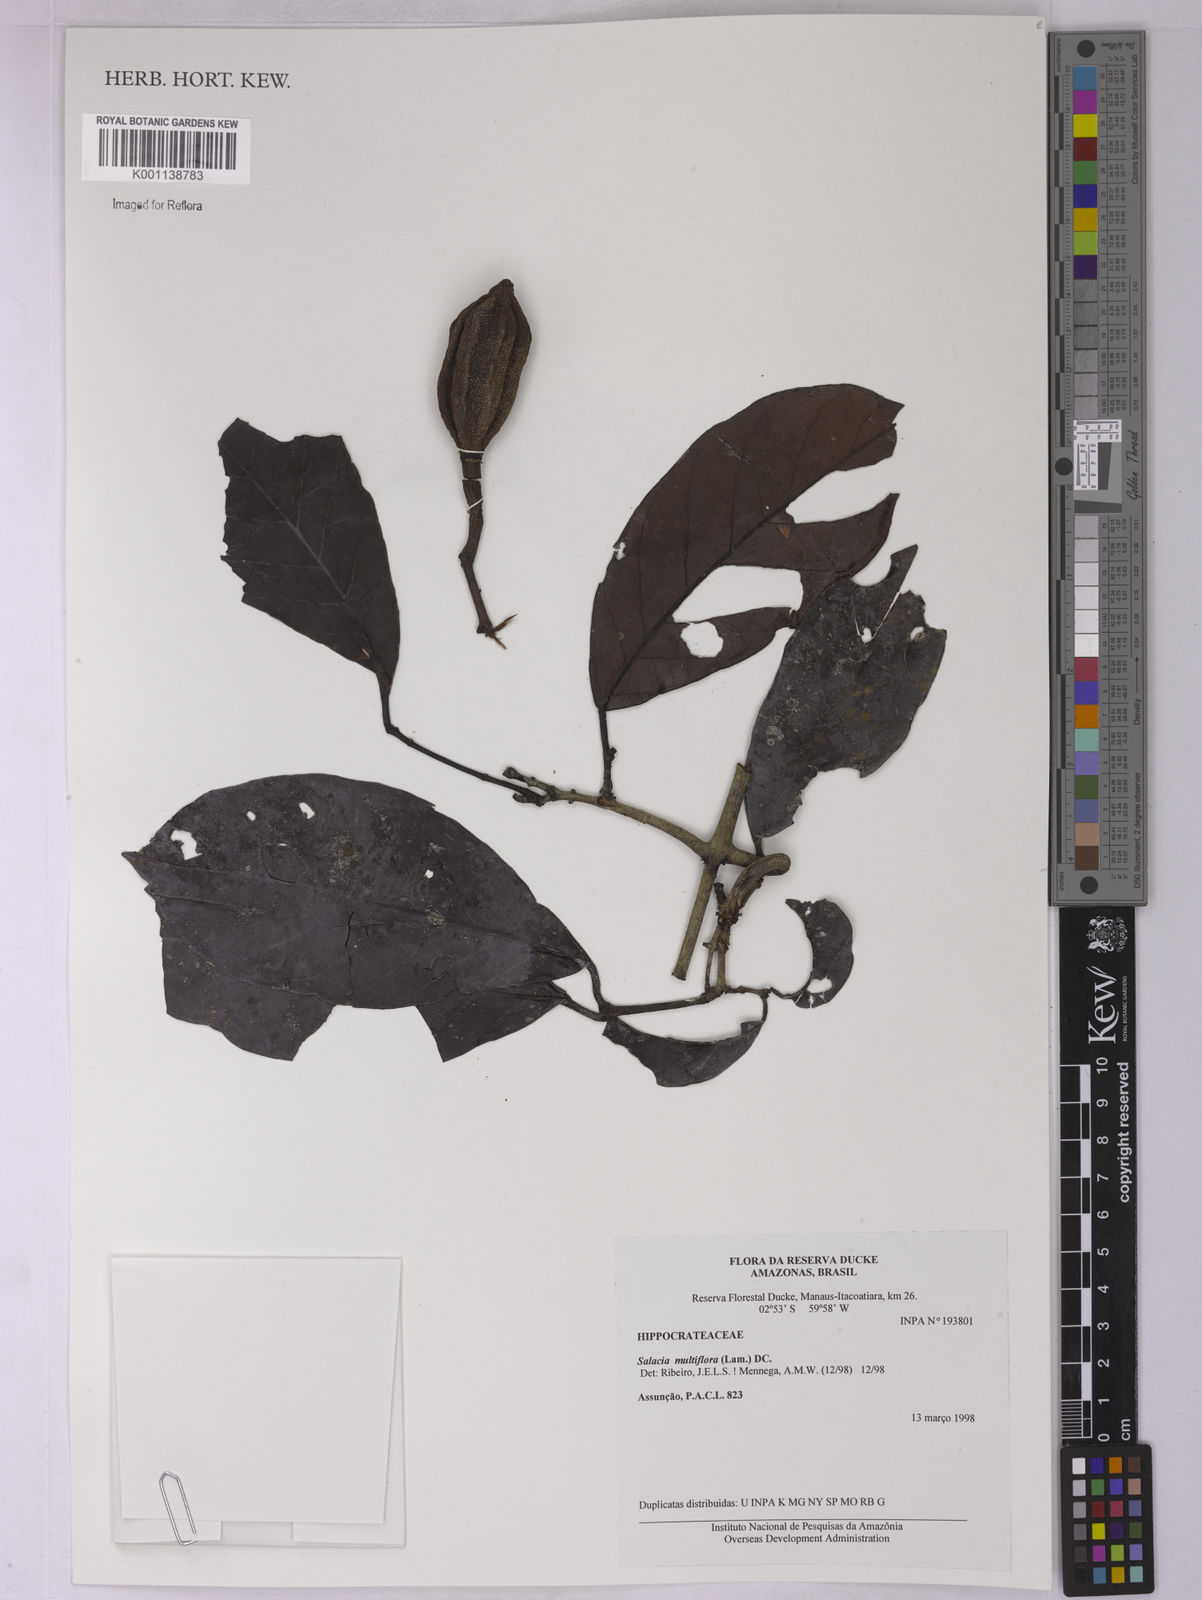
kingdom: Plantae
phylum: Tracheophyta
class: Magnoliopsida
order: Celastrales
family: Celastraceae
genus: Salacia
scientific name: Salacia multiflora
